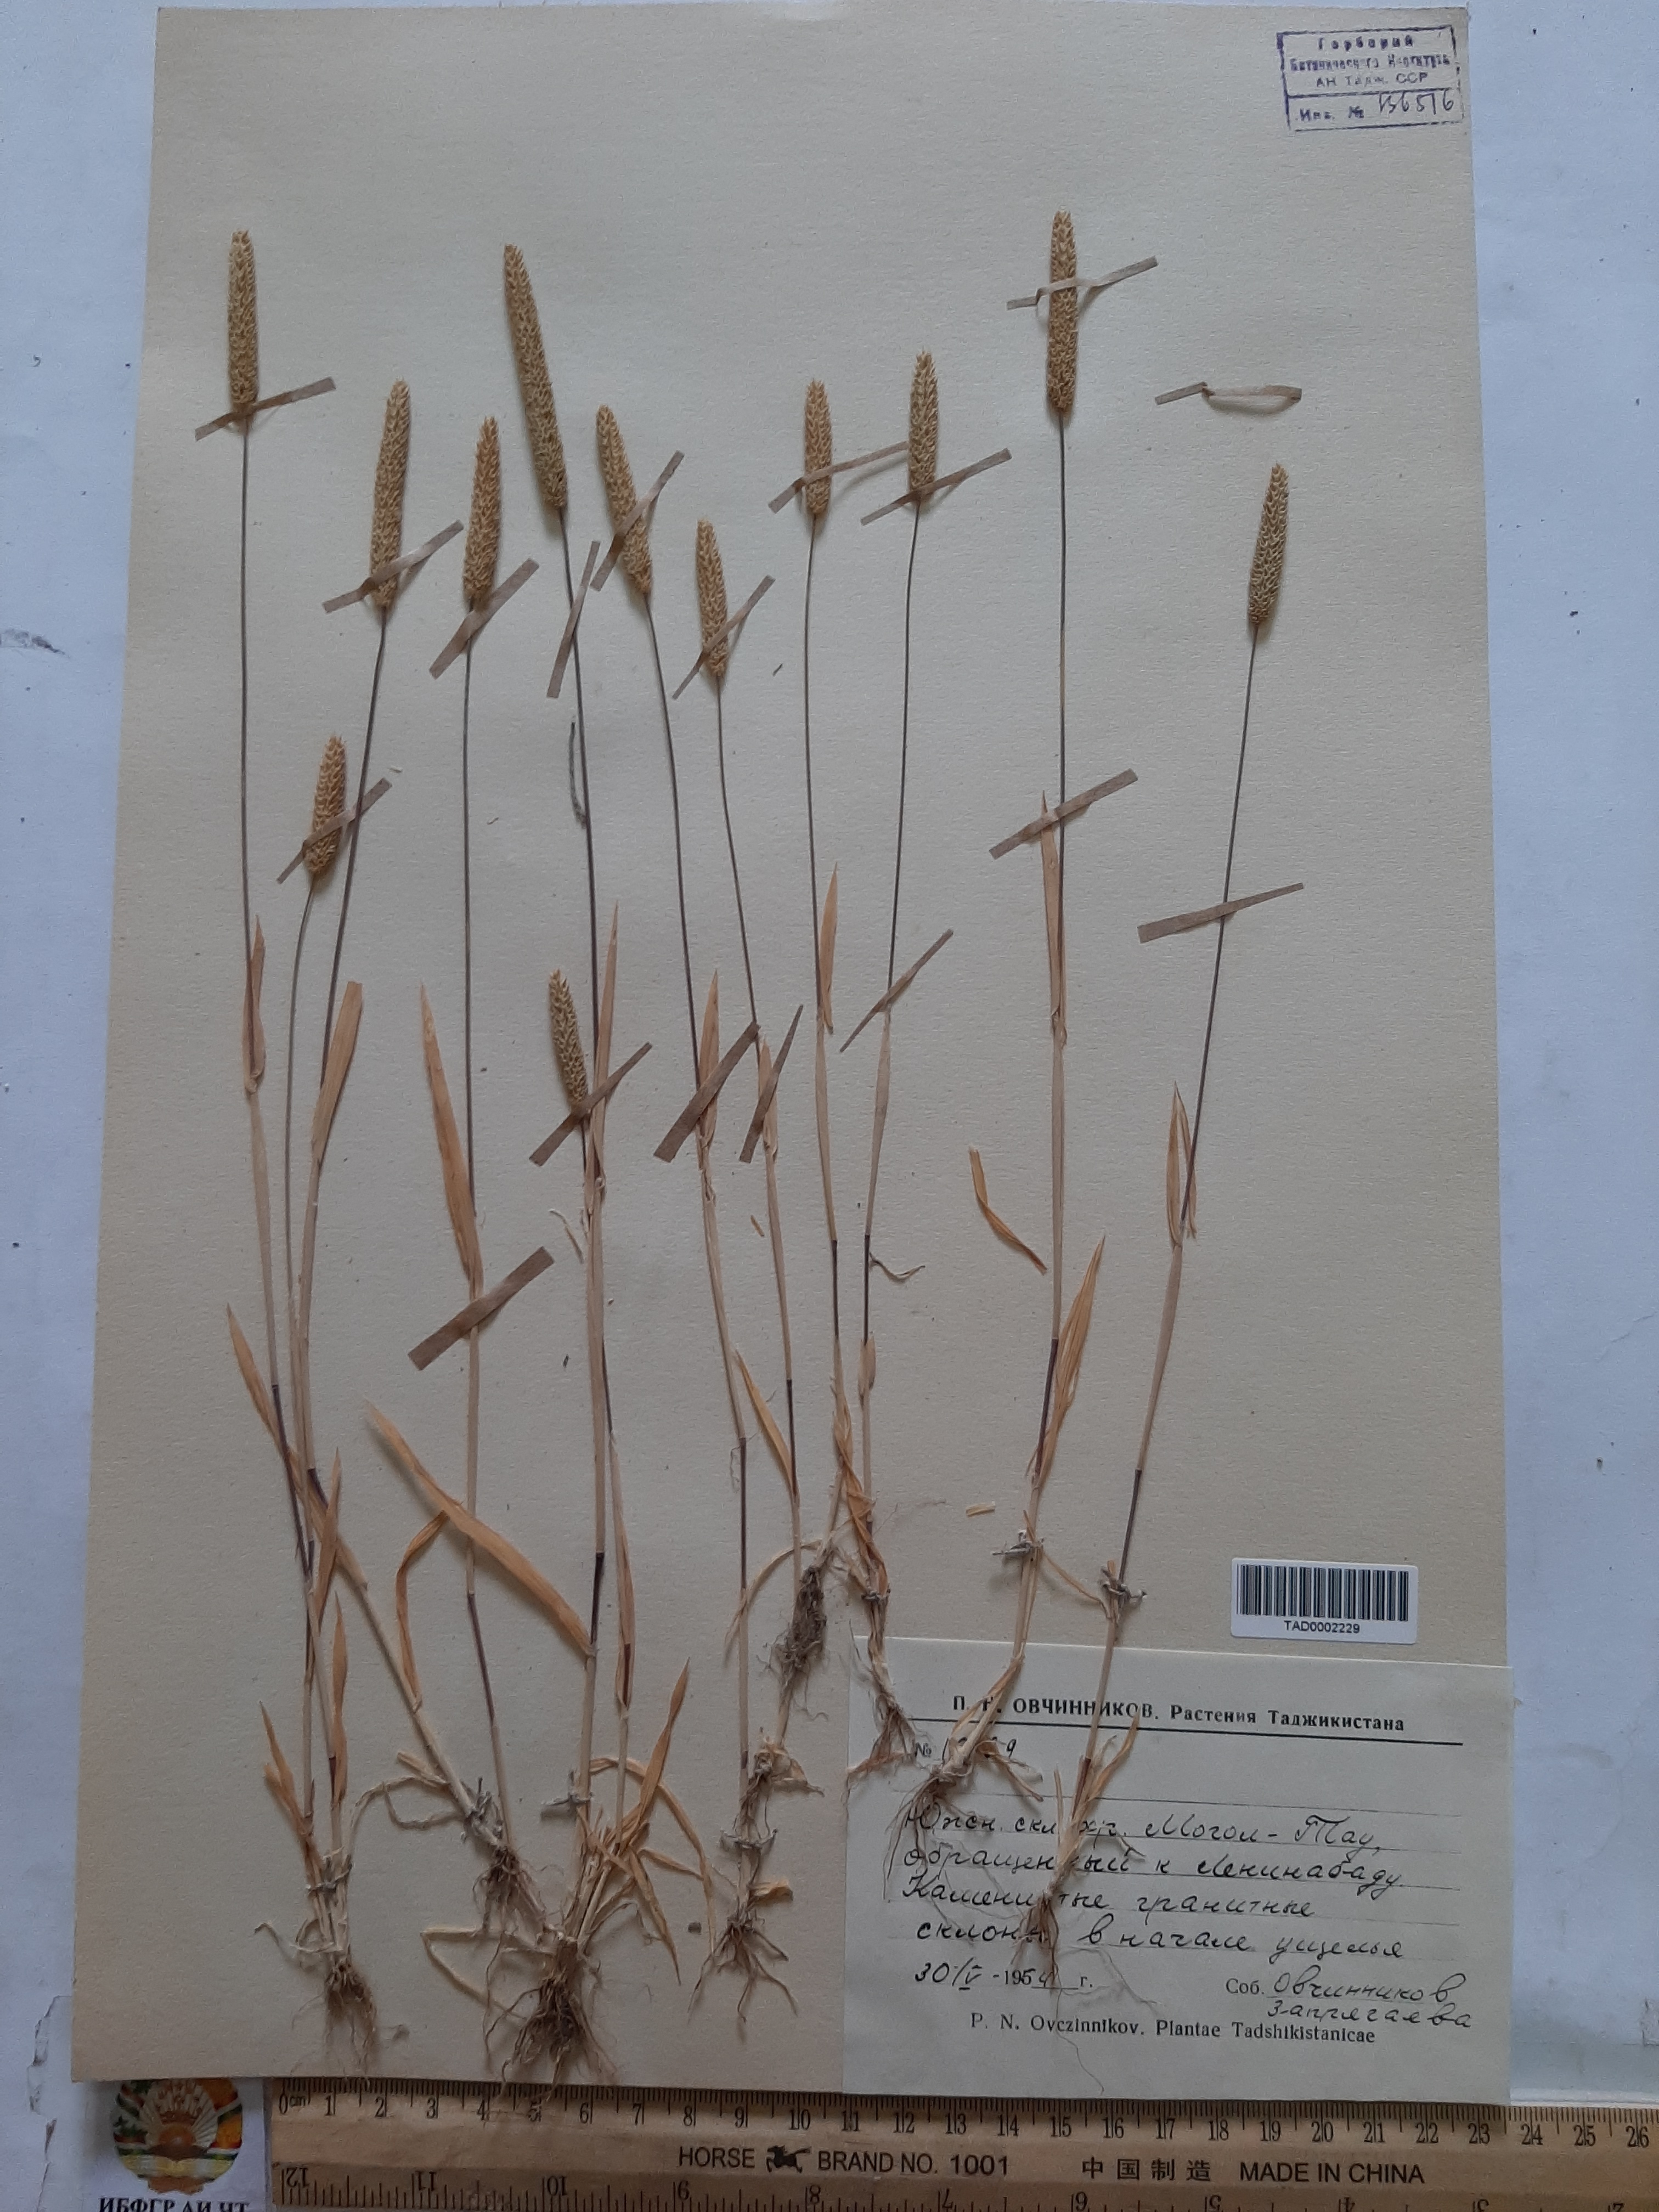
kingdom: Plantae
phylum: Tracheophyta
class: Liliopsida
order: Poales
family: Poaceae
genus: Phleum
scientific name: Phleum paniculatum
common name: British timothy
